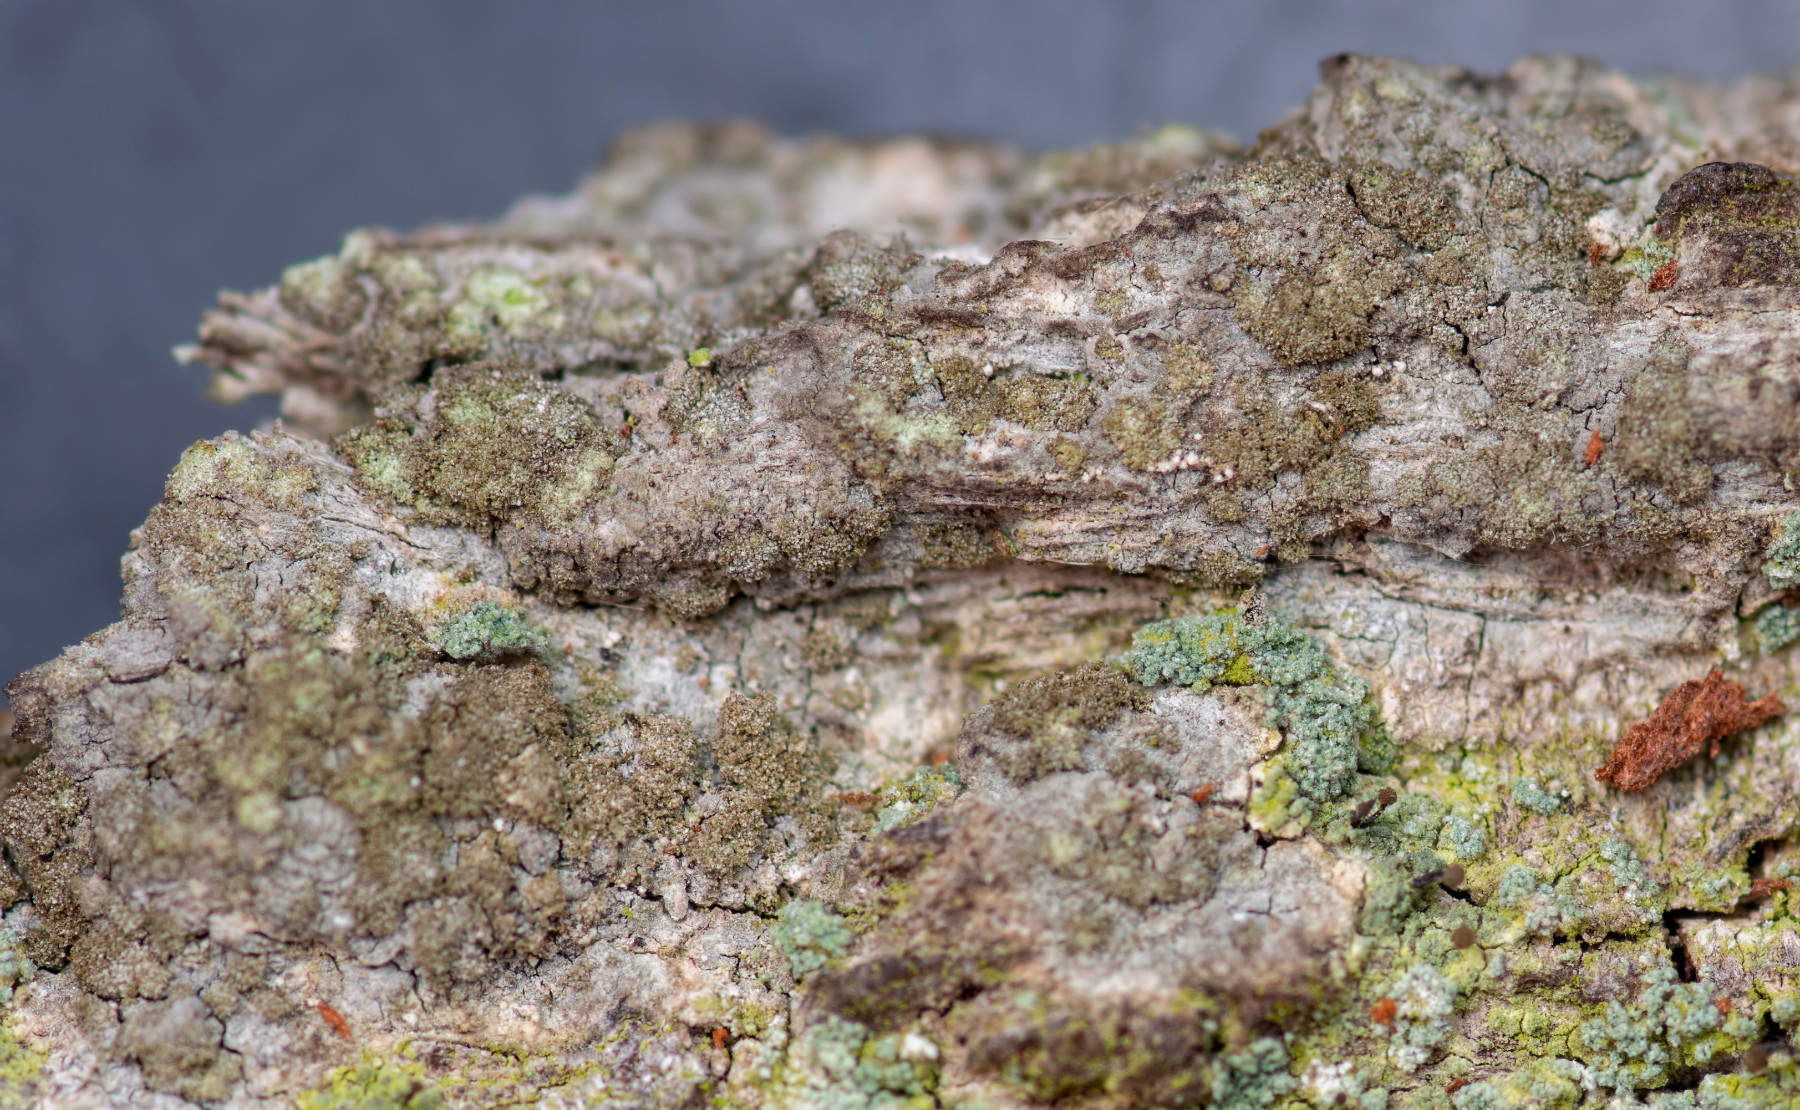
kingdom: Fungi
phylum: Ascomycota
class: Arthoniomycetes
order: Arthoniales
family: Roccellaceae
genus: Dendrographa
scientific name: Dendrographa decolorans
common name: forskelligfarvet skurvelav
